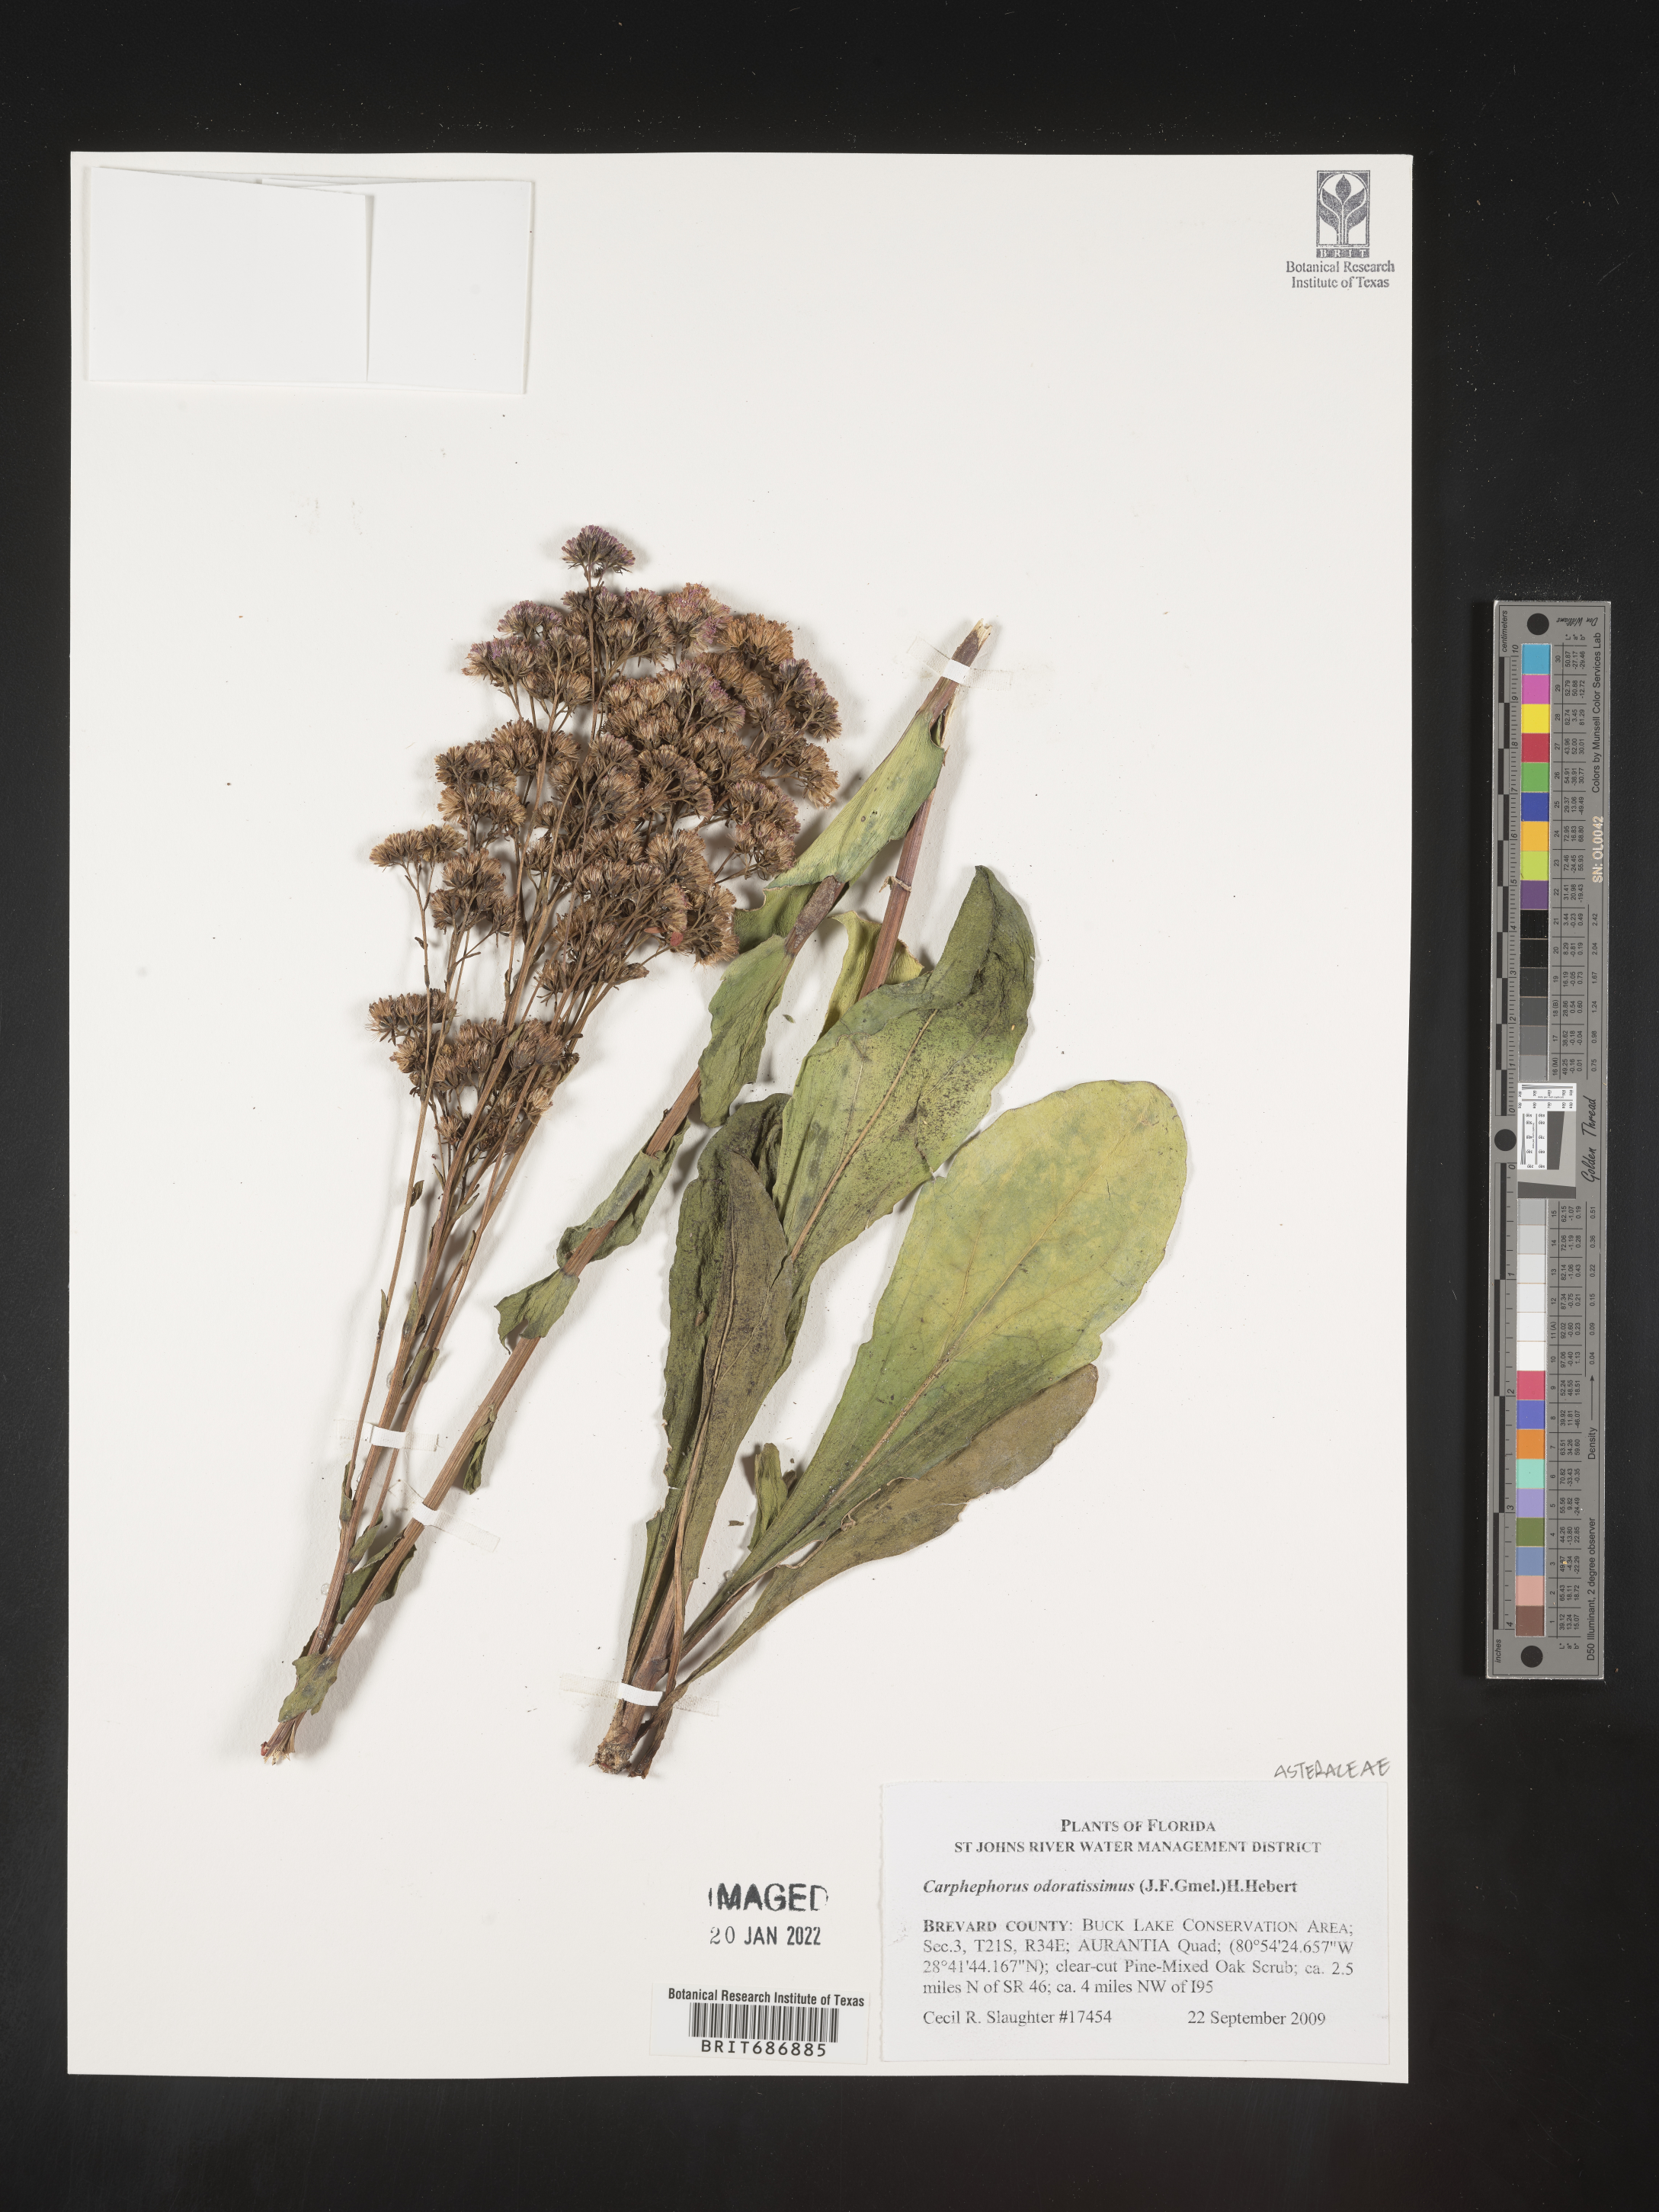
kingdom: Plantae
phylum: Tracheophyta
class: Magnoliopsida
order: Asterales
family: Asteraceae
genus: Carphephorus
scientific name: Carphephorus odoratissimus
